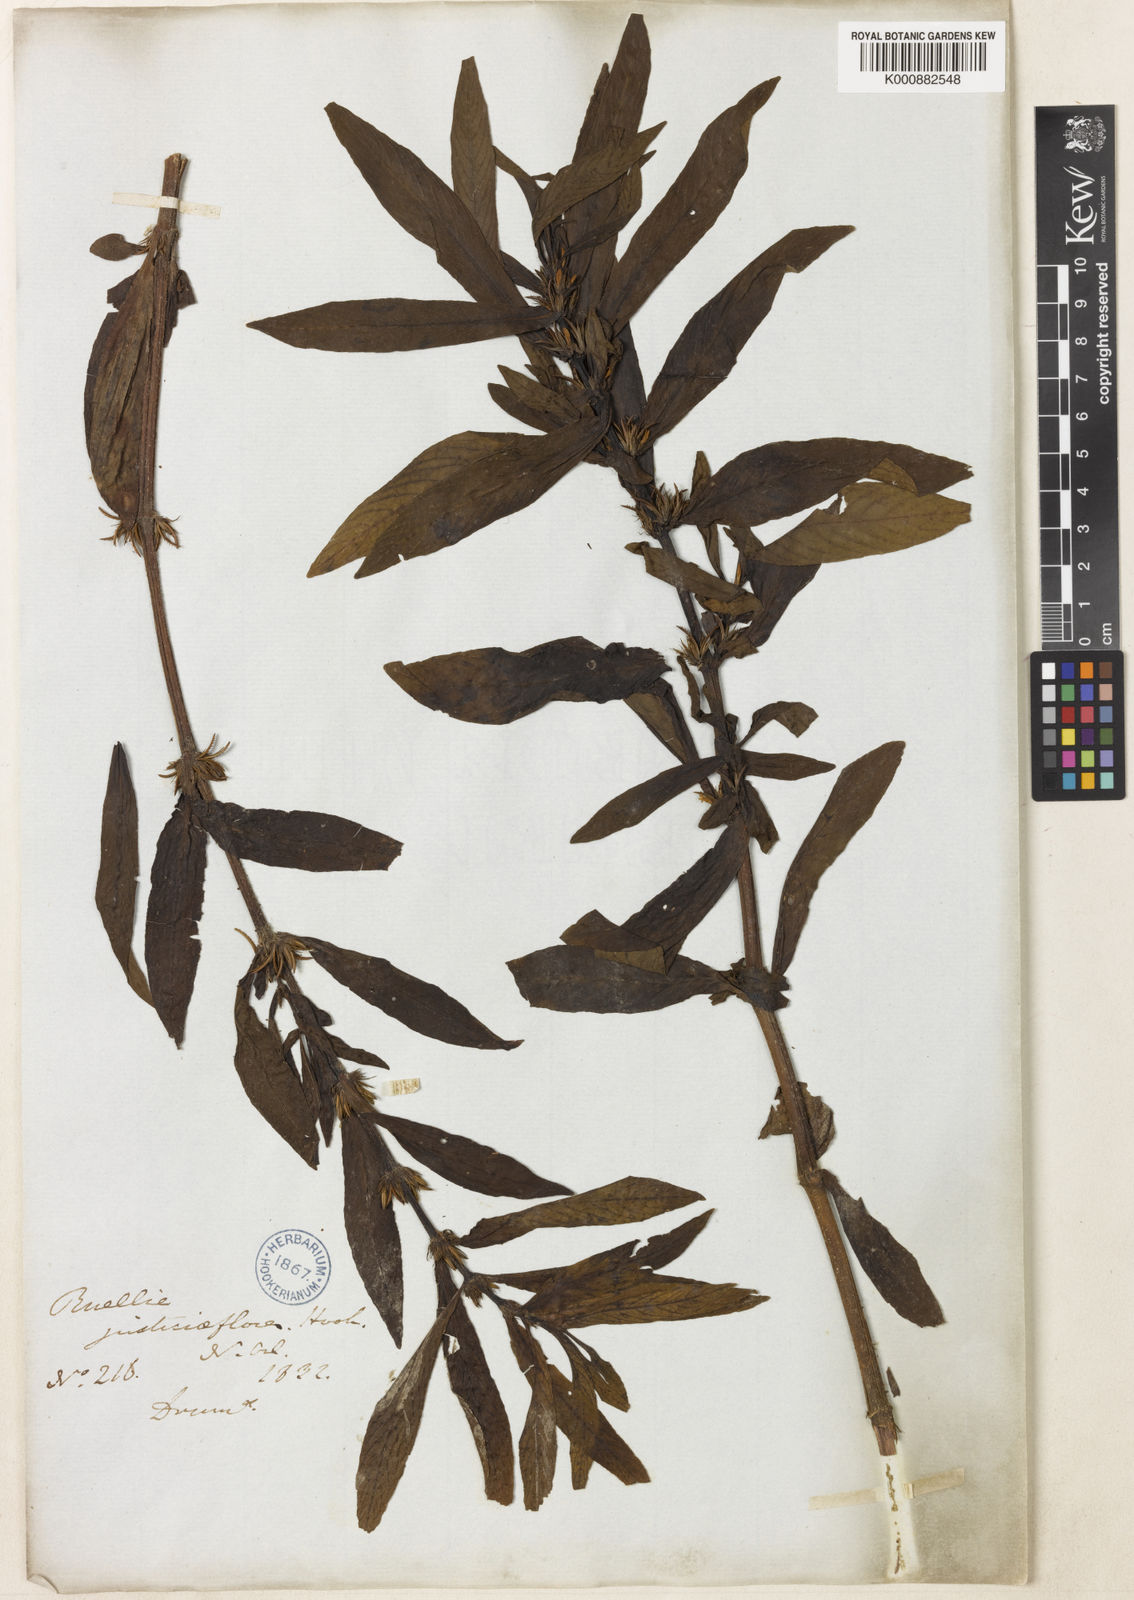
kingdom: Plantae
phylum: Tracheophyta
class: Magnoliopsida
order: Lamiales
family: Acanthaceae
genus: Hygrophila
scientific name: Hygrophila costata
